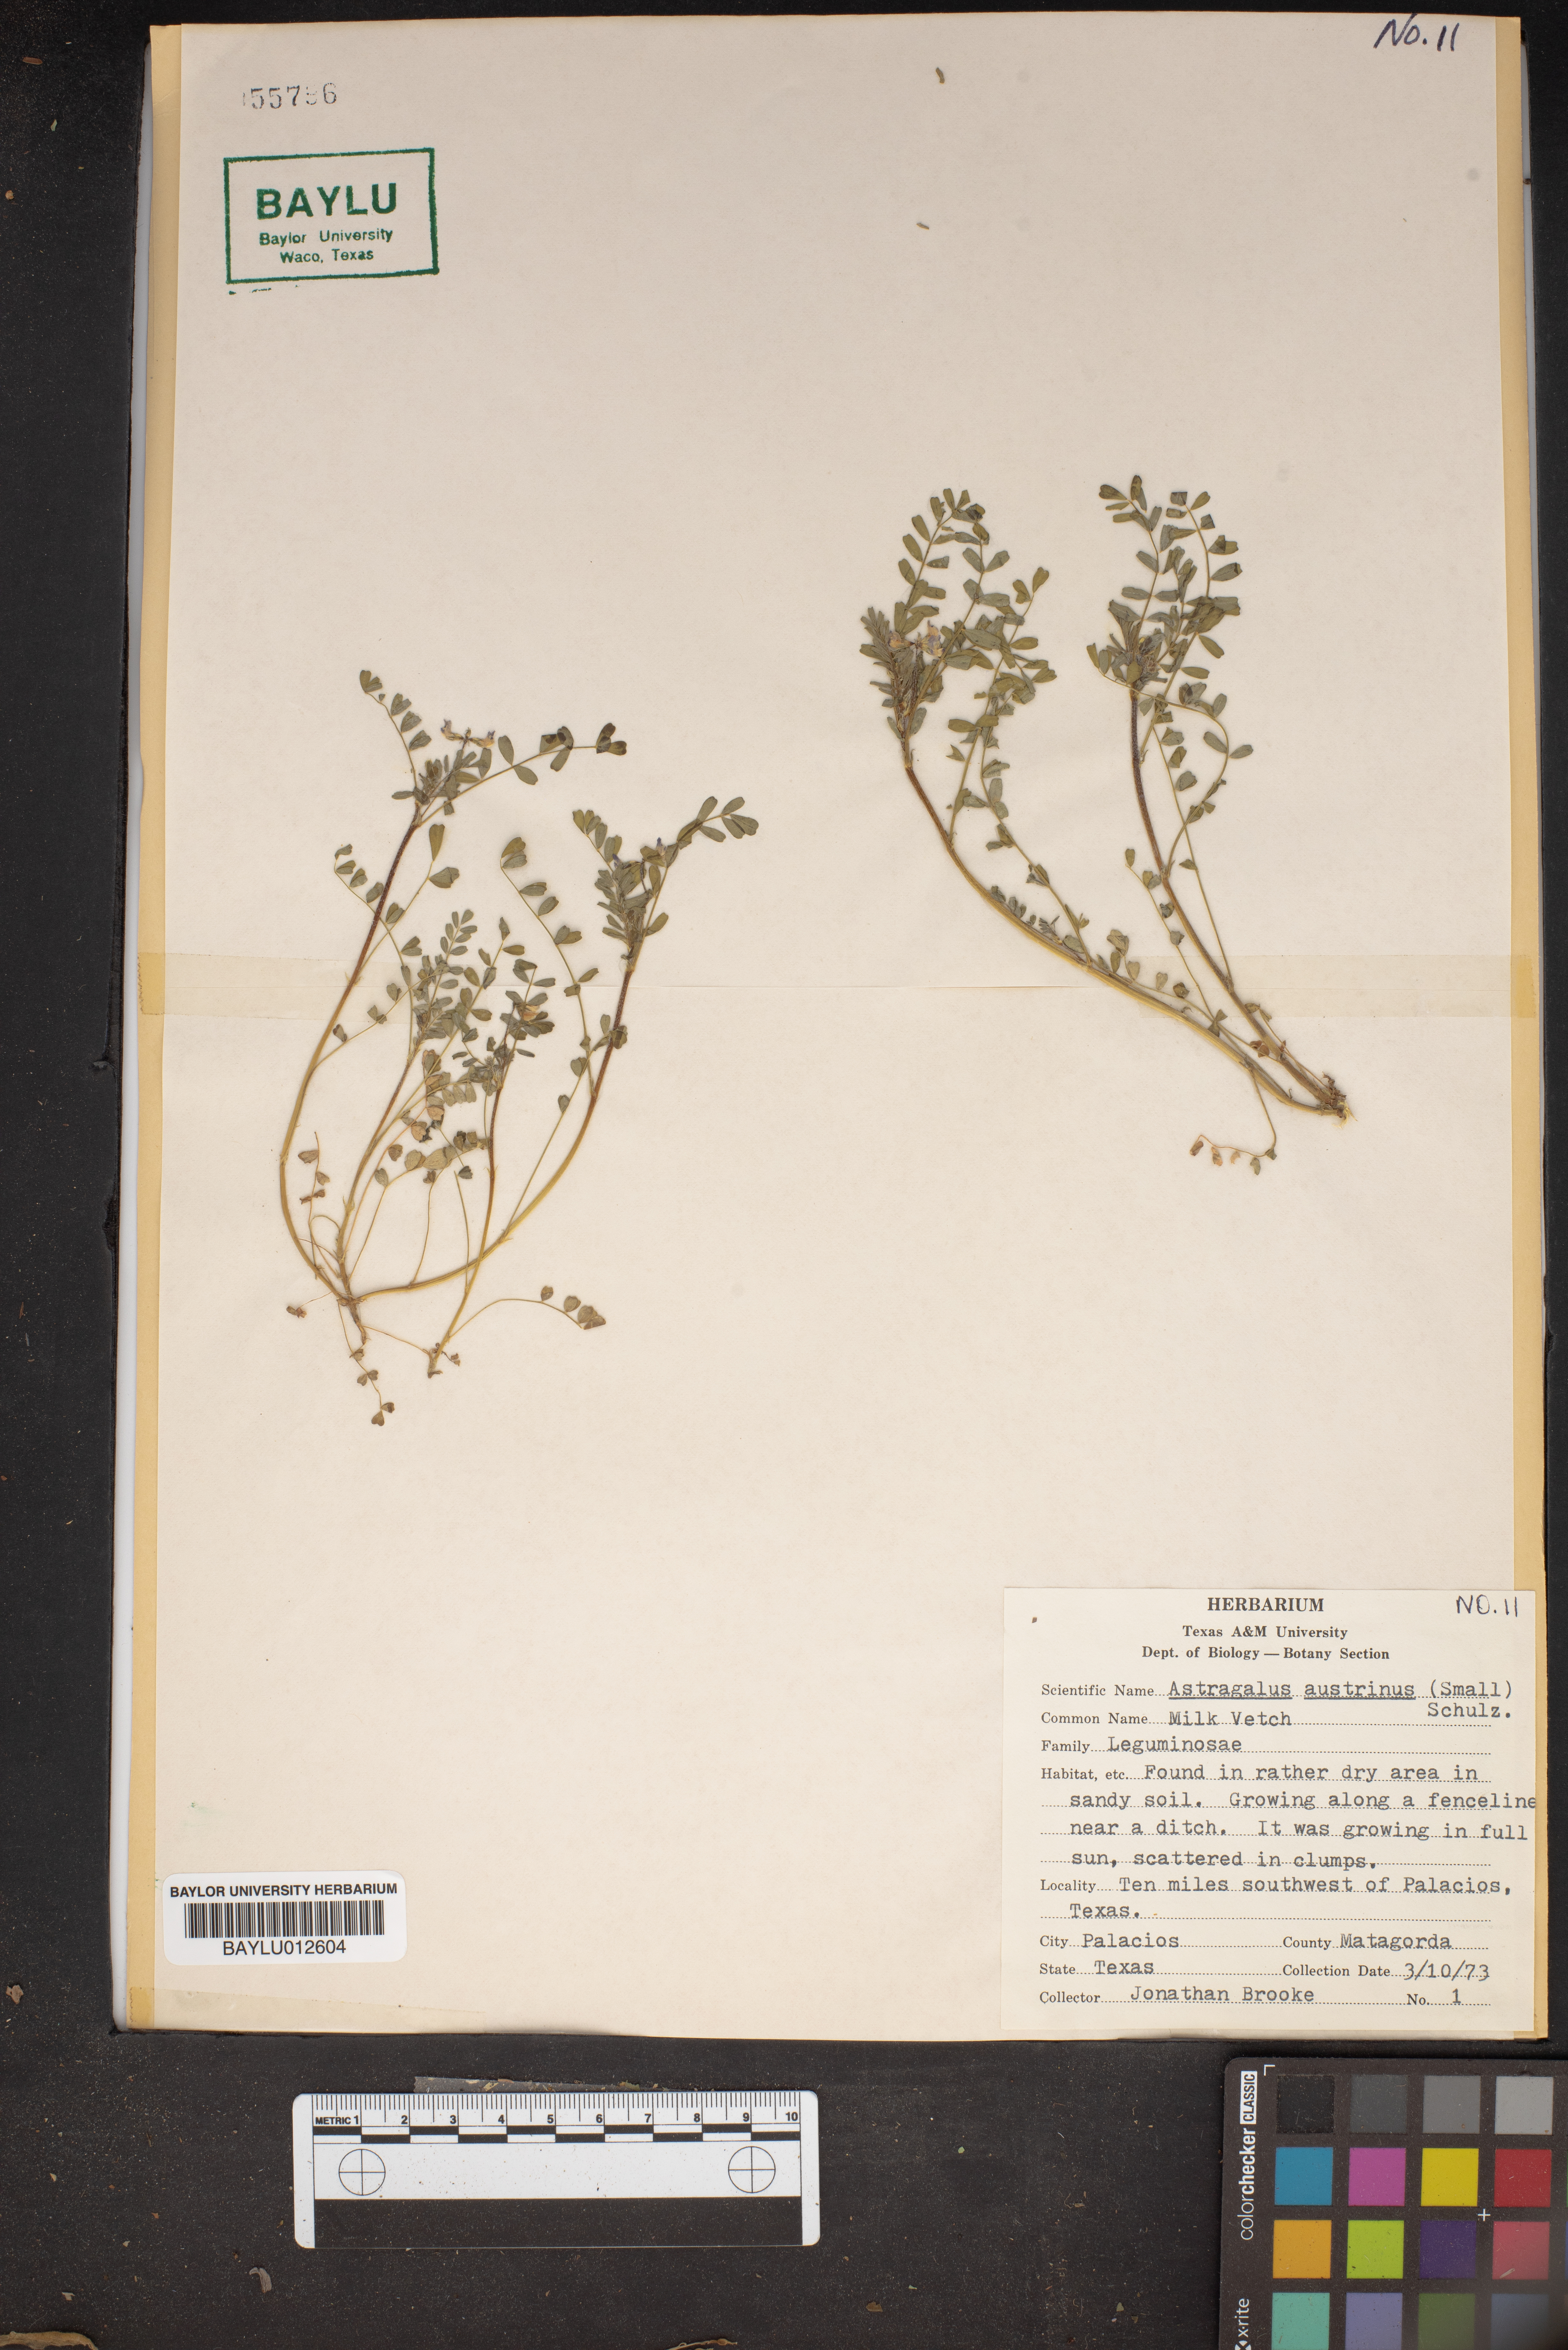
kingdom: Plantae
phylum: Tracheophyta
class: Magnoliopsida
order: Fabales
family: Fabaceae
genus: Astragalus
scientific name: Astragalus nuttallianus
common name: Smallflowered milkvetch
